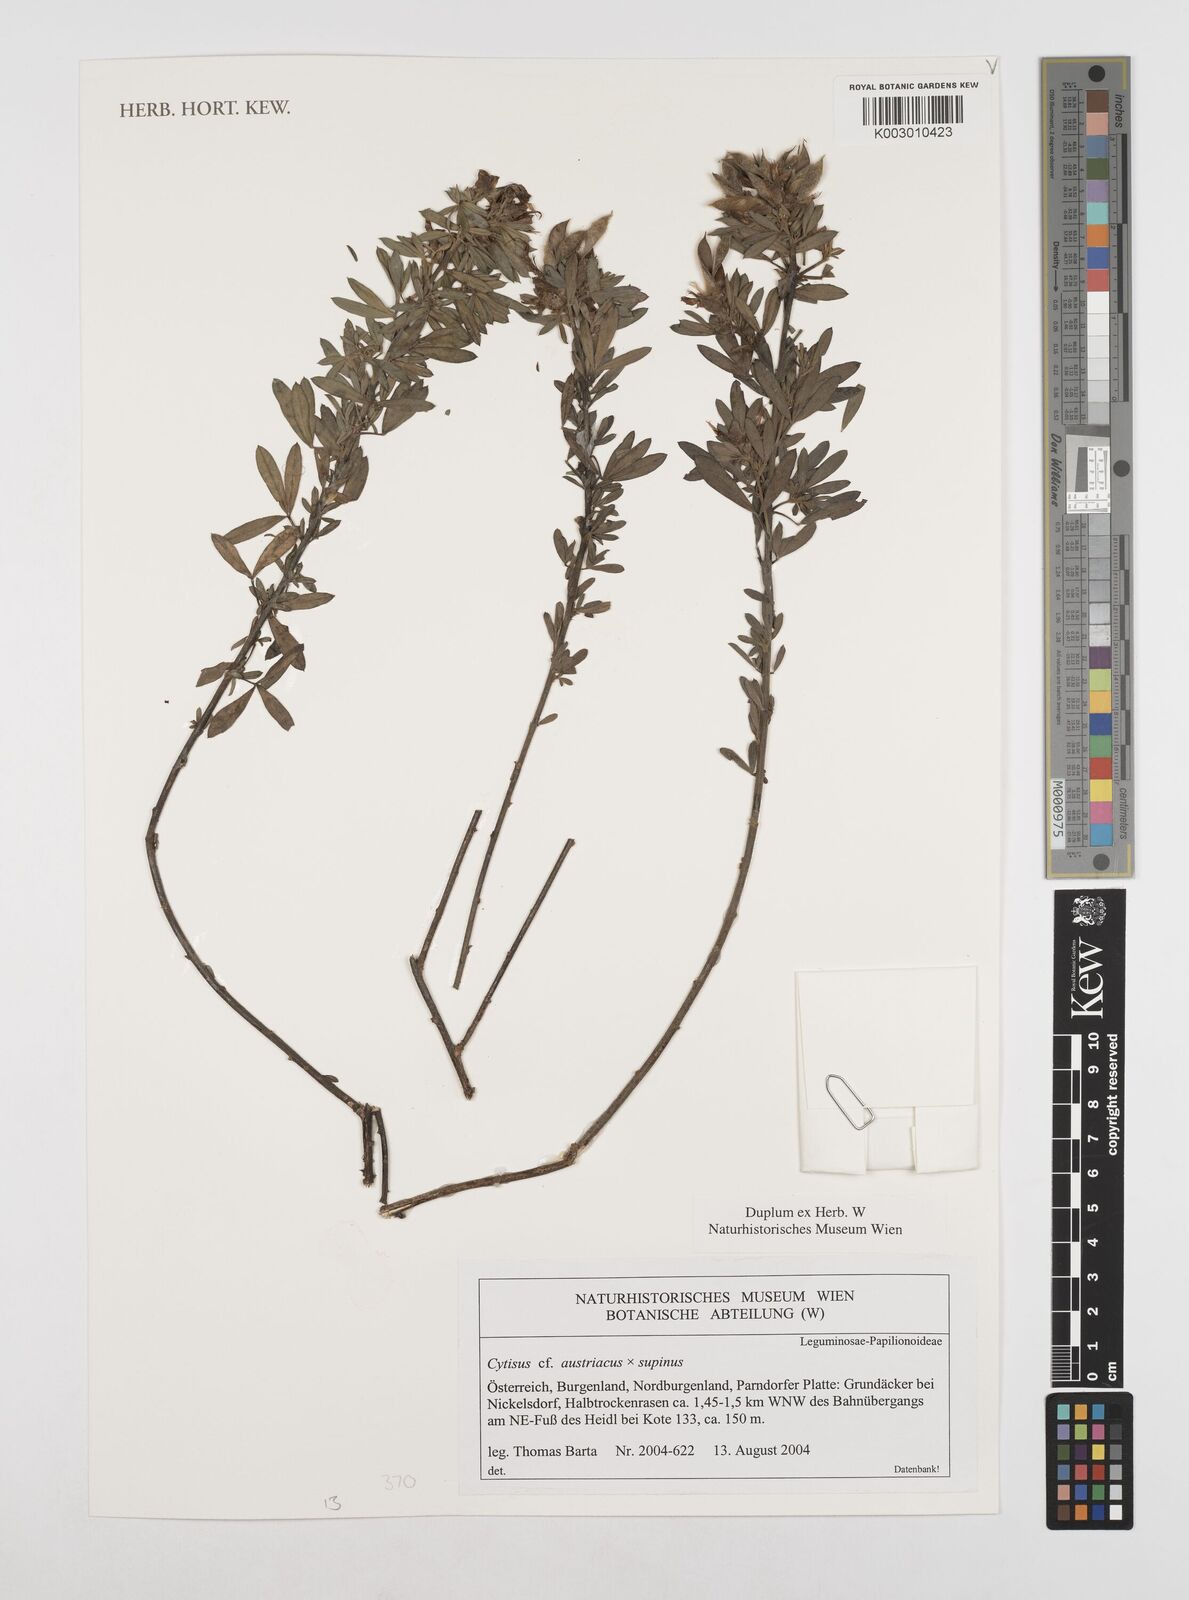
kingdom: Plantae
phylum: Tracheophyta
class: Magnoliopsida
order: Fabales
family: Fabaceae
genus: Chamaecytisus
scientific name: Chamaecytisus austriacus
